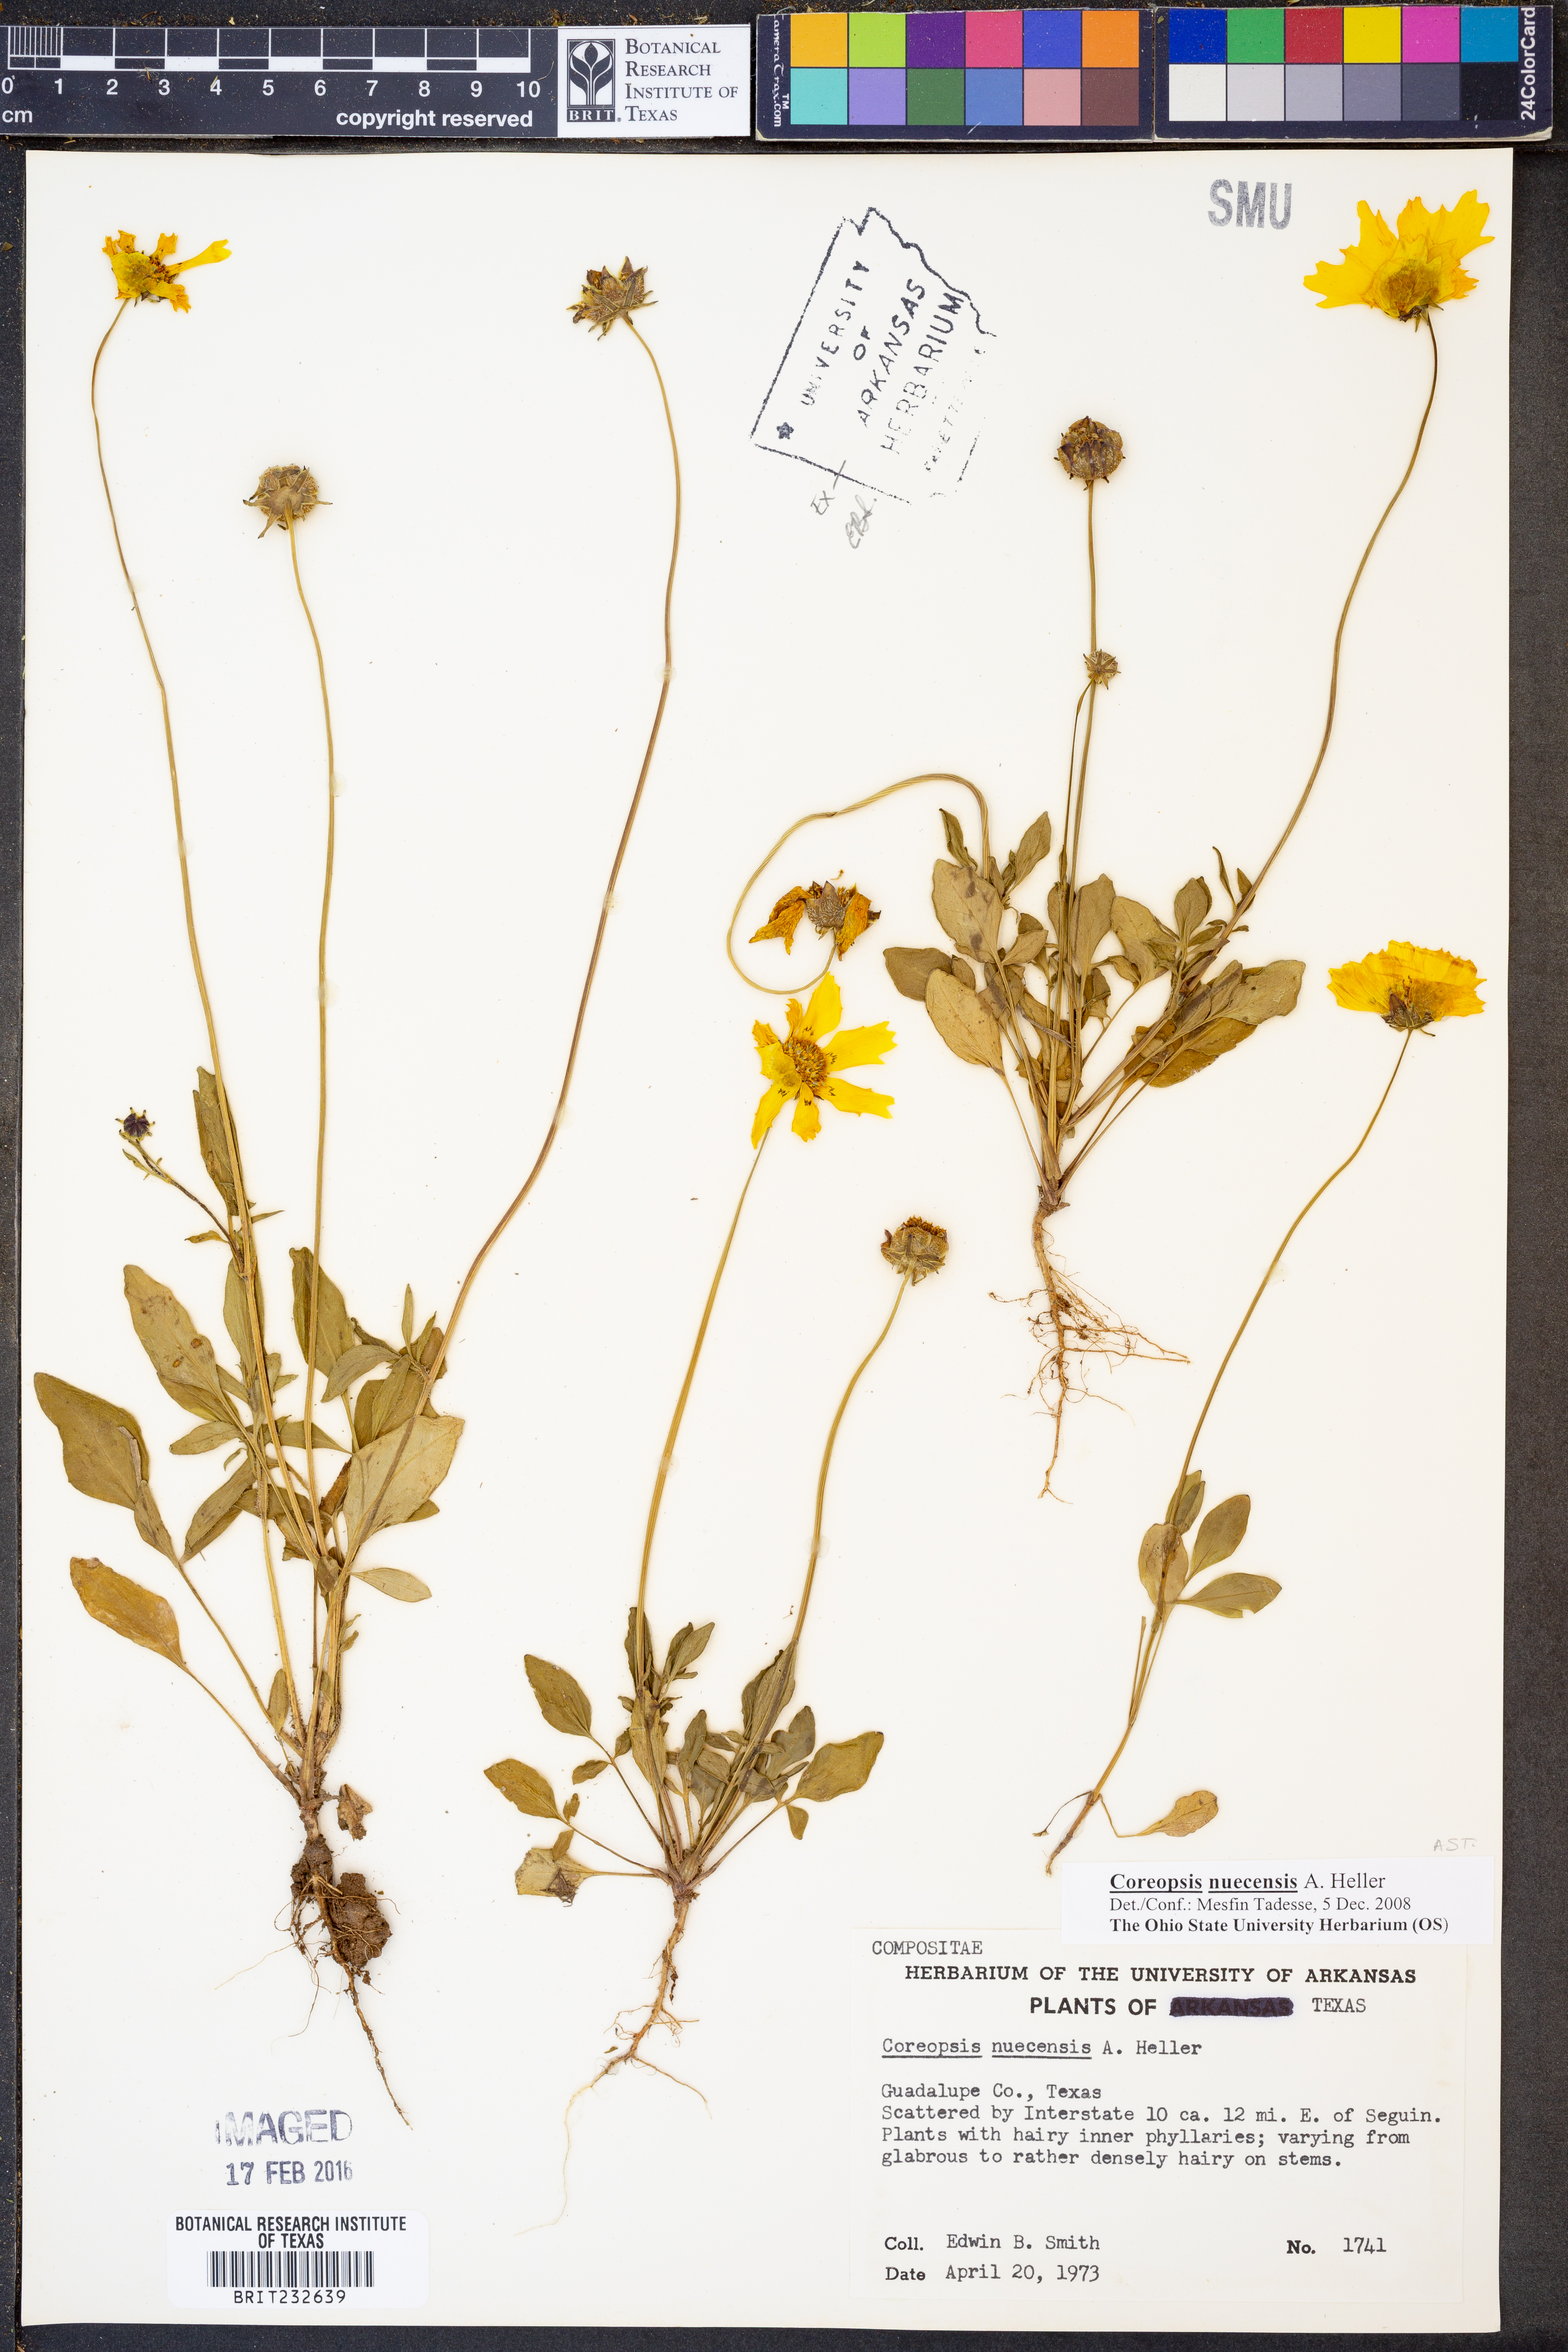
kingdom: Plantae
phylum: Tracheophyta
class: Magnoliopsida
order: Asterales
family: Asteraceae
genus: Coreopsis
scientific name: Coreopsis nuecensis
